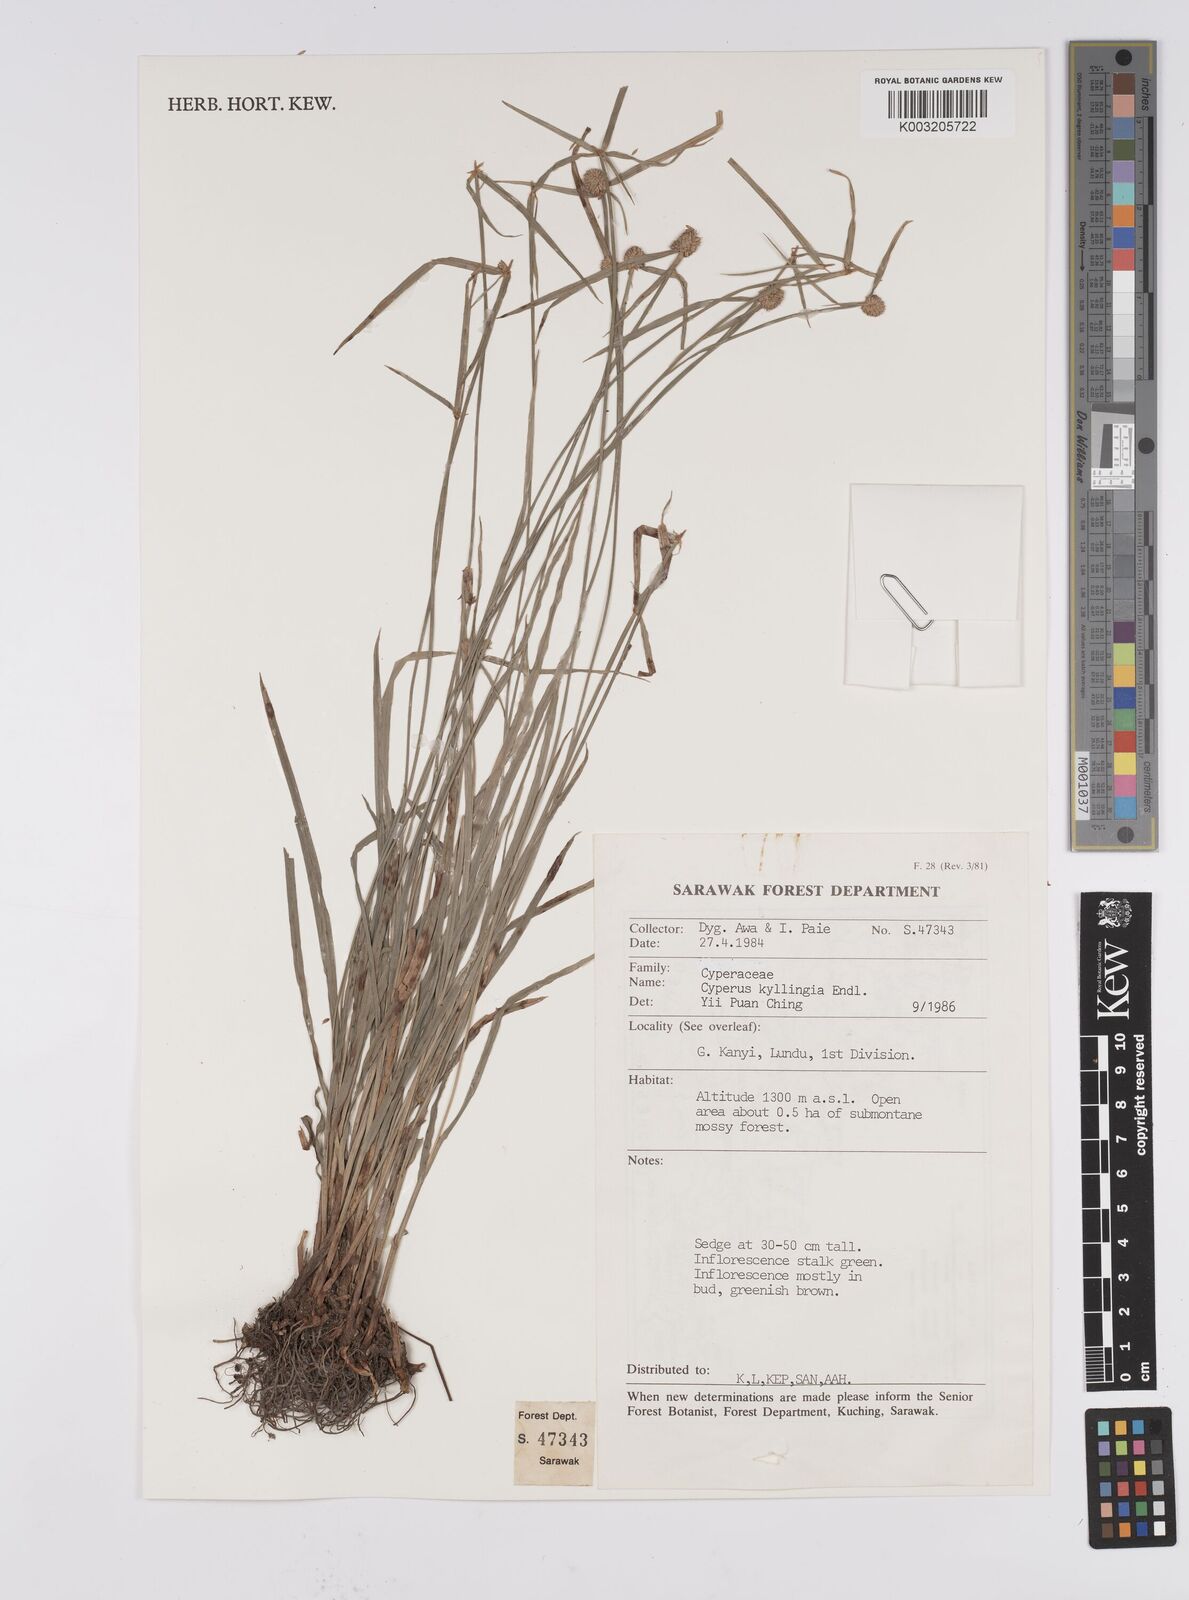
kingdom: Plantae
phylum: Tracheophyta
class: Liliopsida
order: Poales
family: Cyperaceae
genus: Cyperus
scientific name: Cyperus nemoralis
